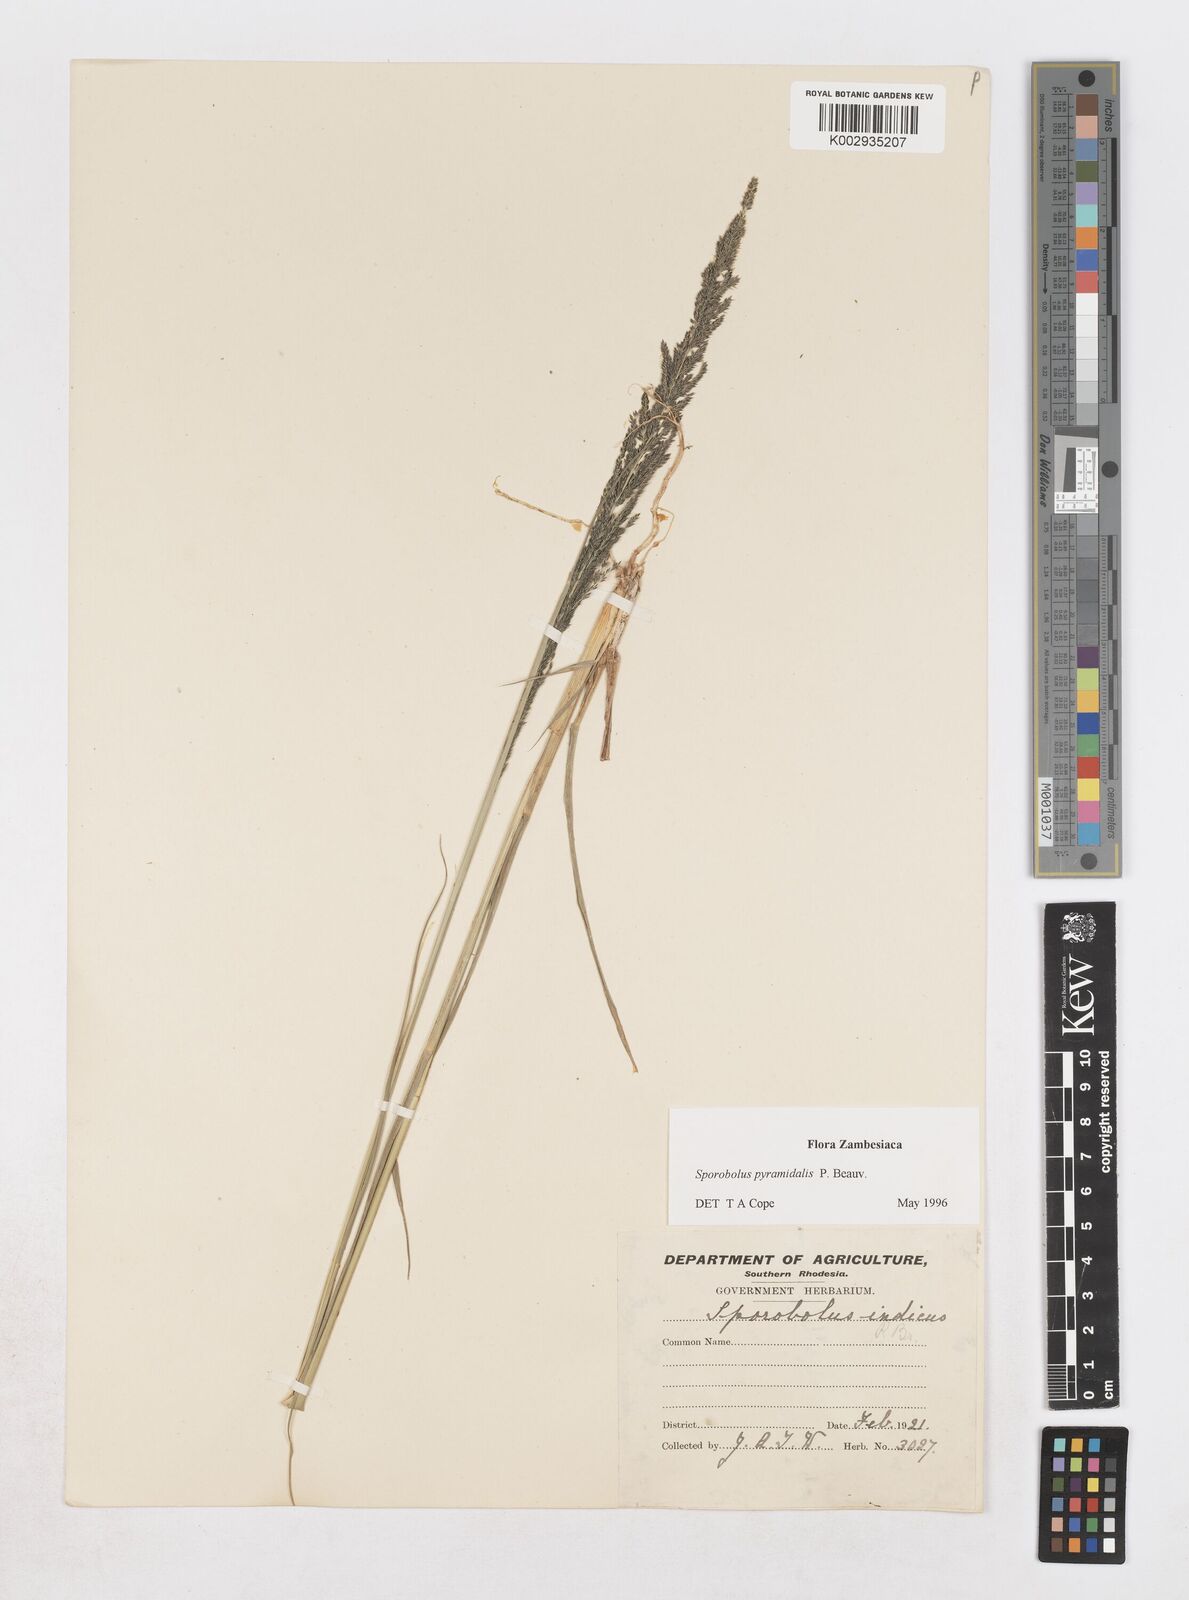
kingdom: Plantae
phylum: Tracheophyta
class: Liliopsida
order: Poales
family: Poaceae
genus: Sporobolus
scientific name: Sporobolus pyramidalis
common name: West indian dropseed
